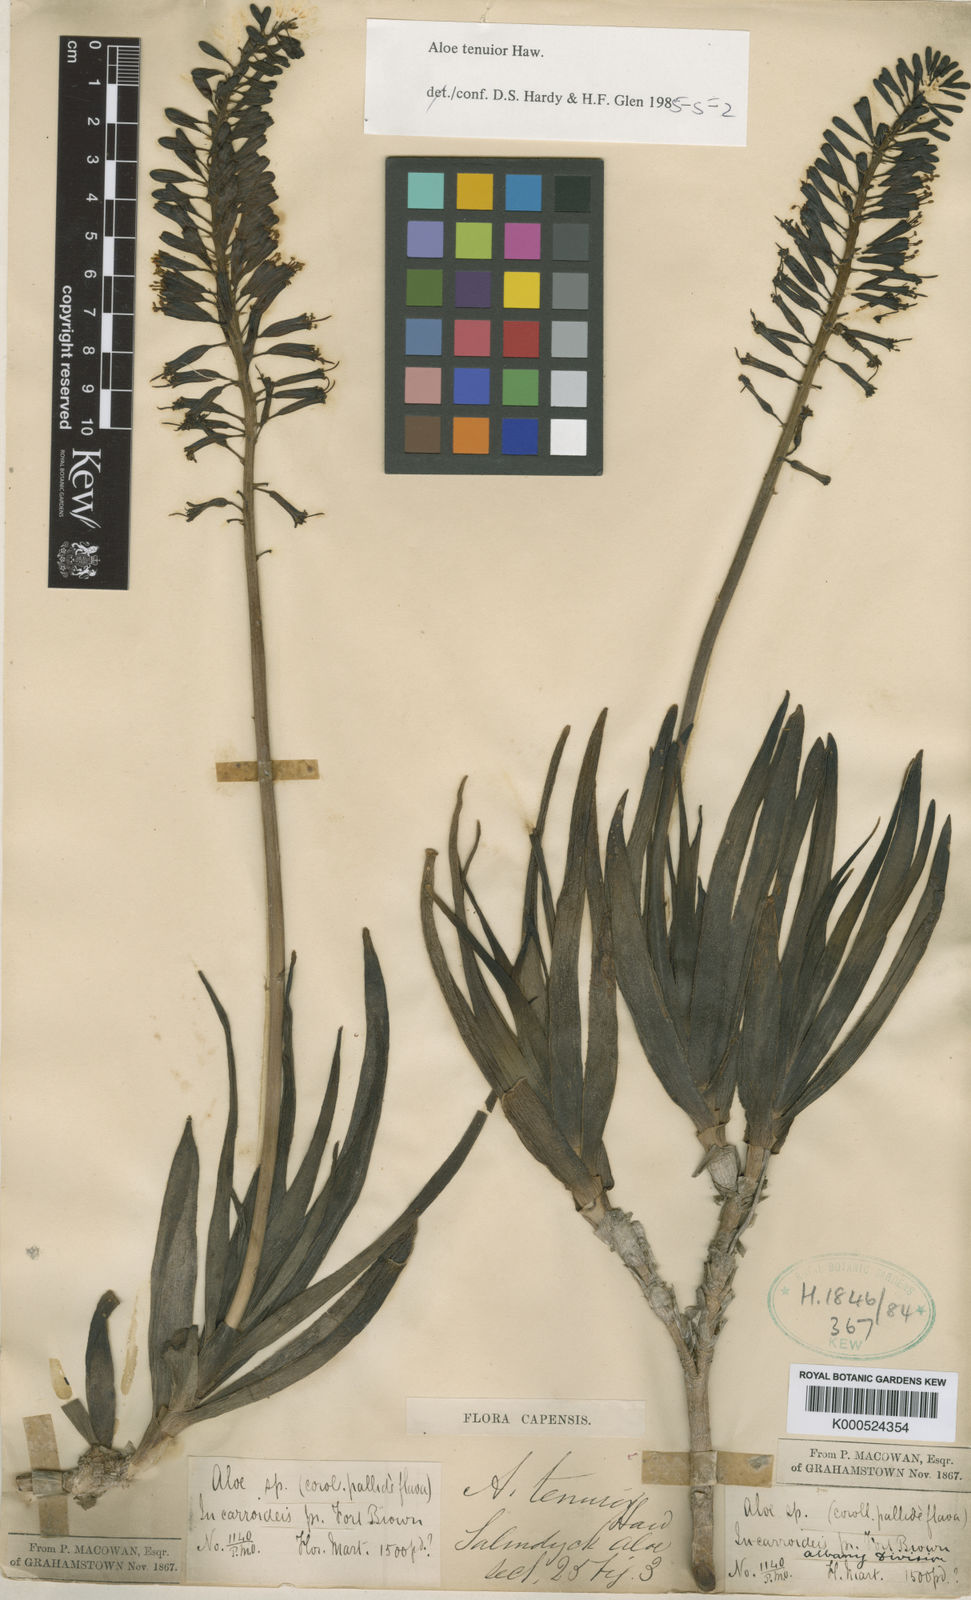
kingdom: Plantae
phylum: Tracheophyta
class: Liliopsida
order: Asparagales
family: Asphodelaceae
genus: Aloiampelos
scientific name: Aloiampelos tenuior
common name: Fence aloe
